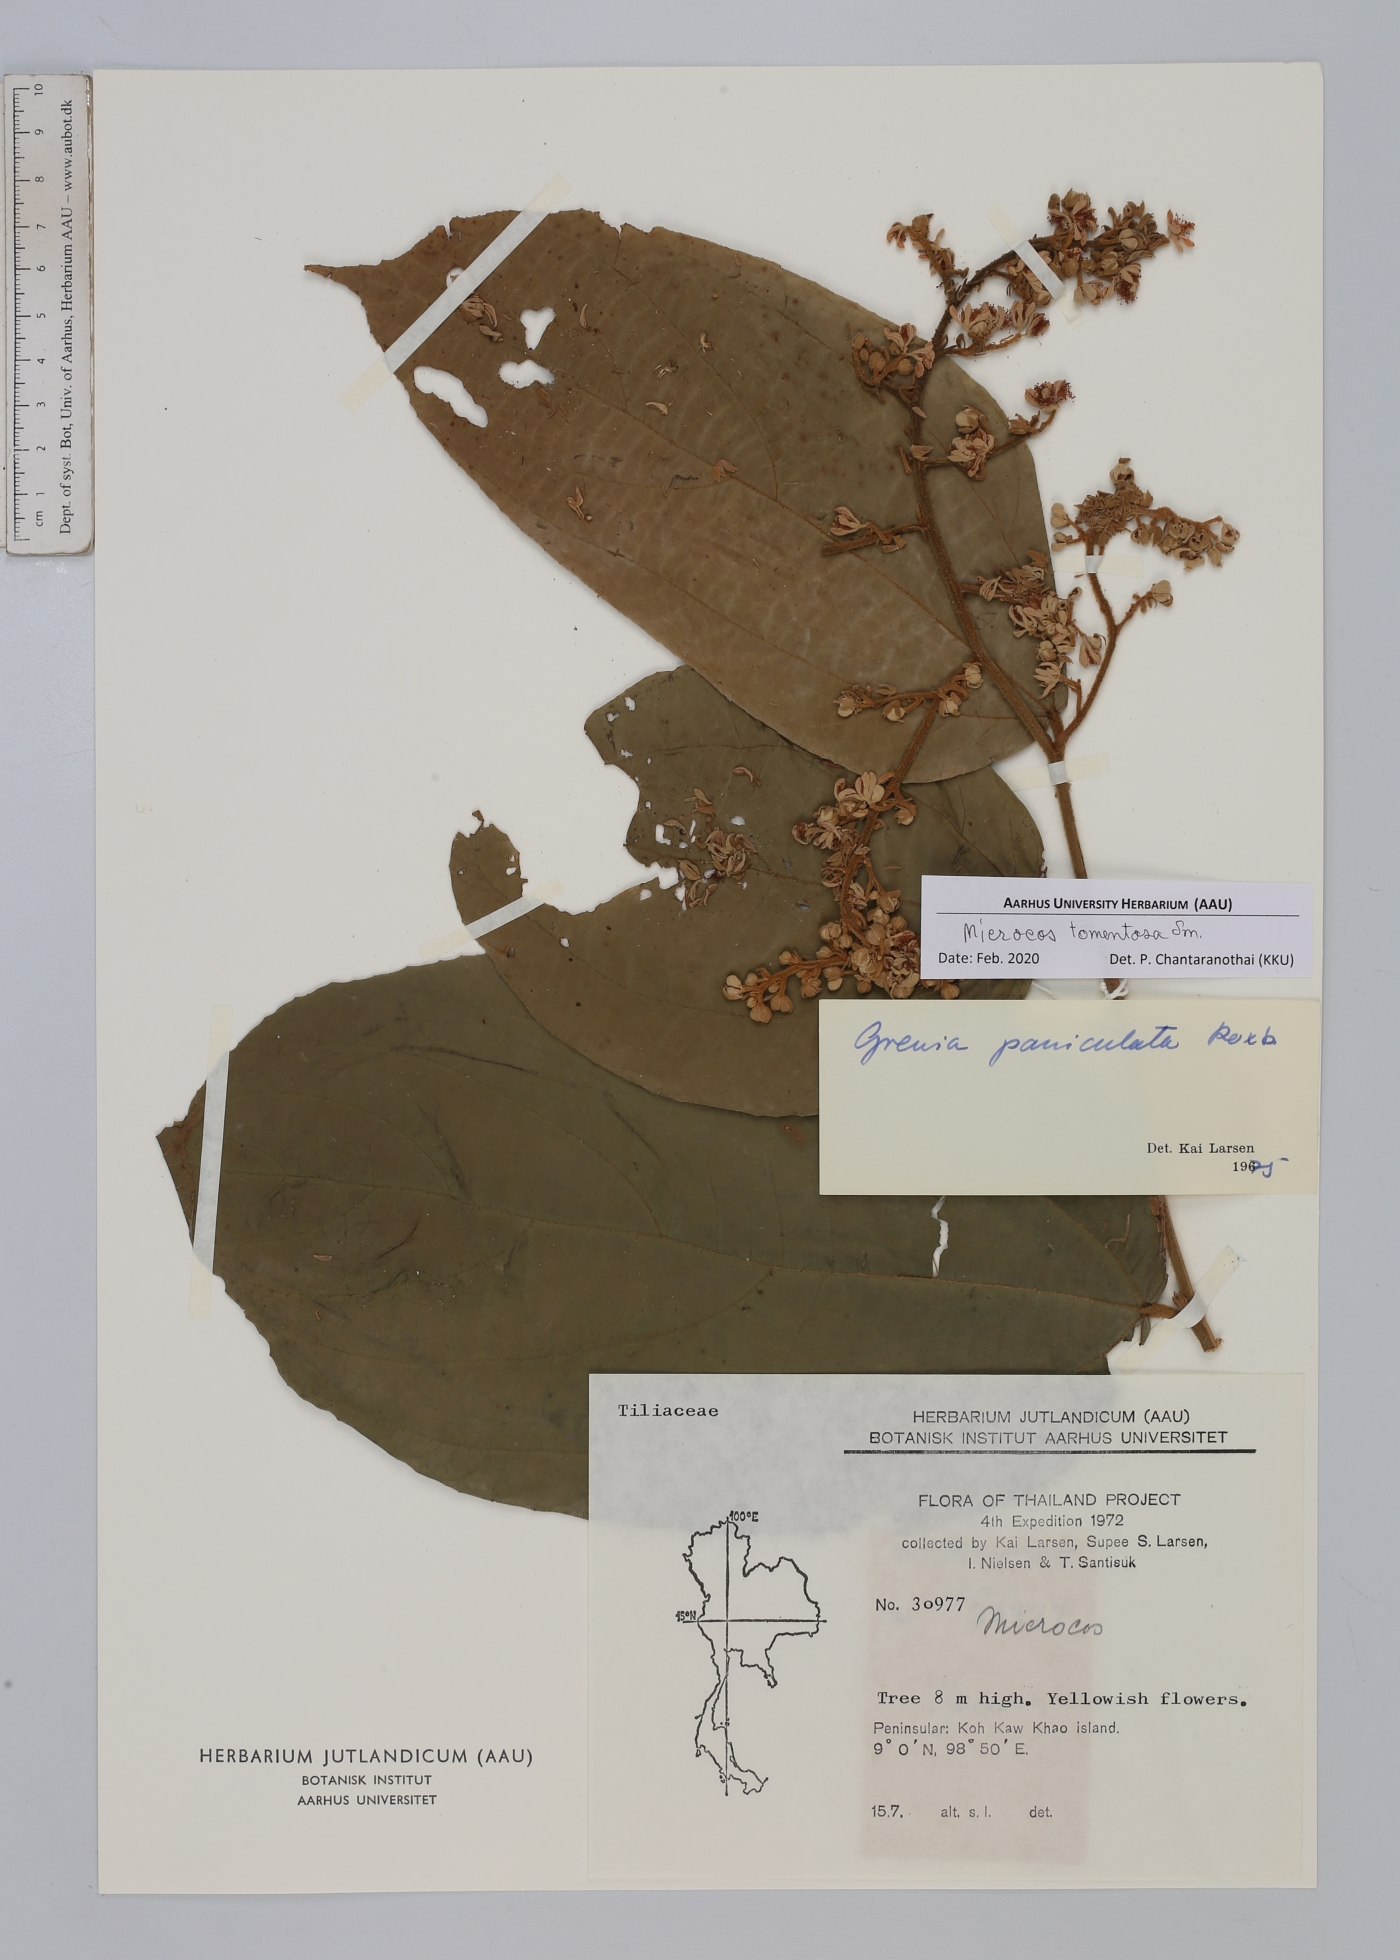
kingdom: Plantae
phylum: Tracheophyta
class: Magnoliopsida
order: Malvales
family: Malvaceae
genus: Microcos
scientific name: Microcos tomentosa
